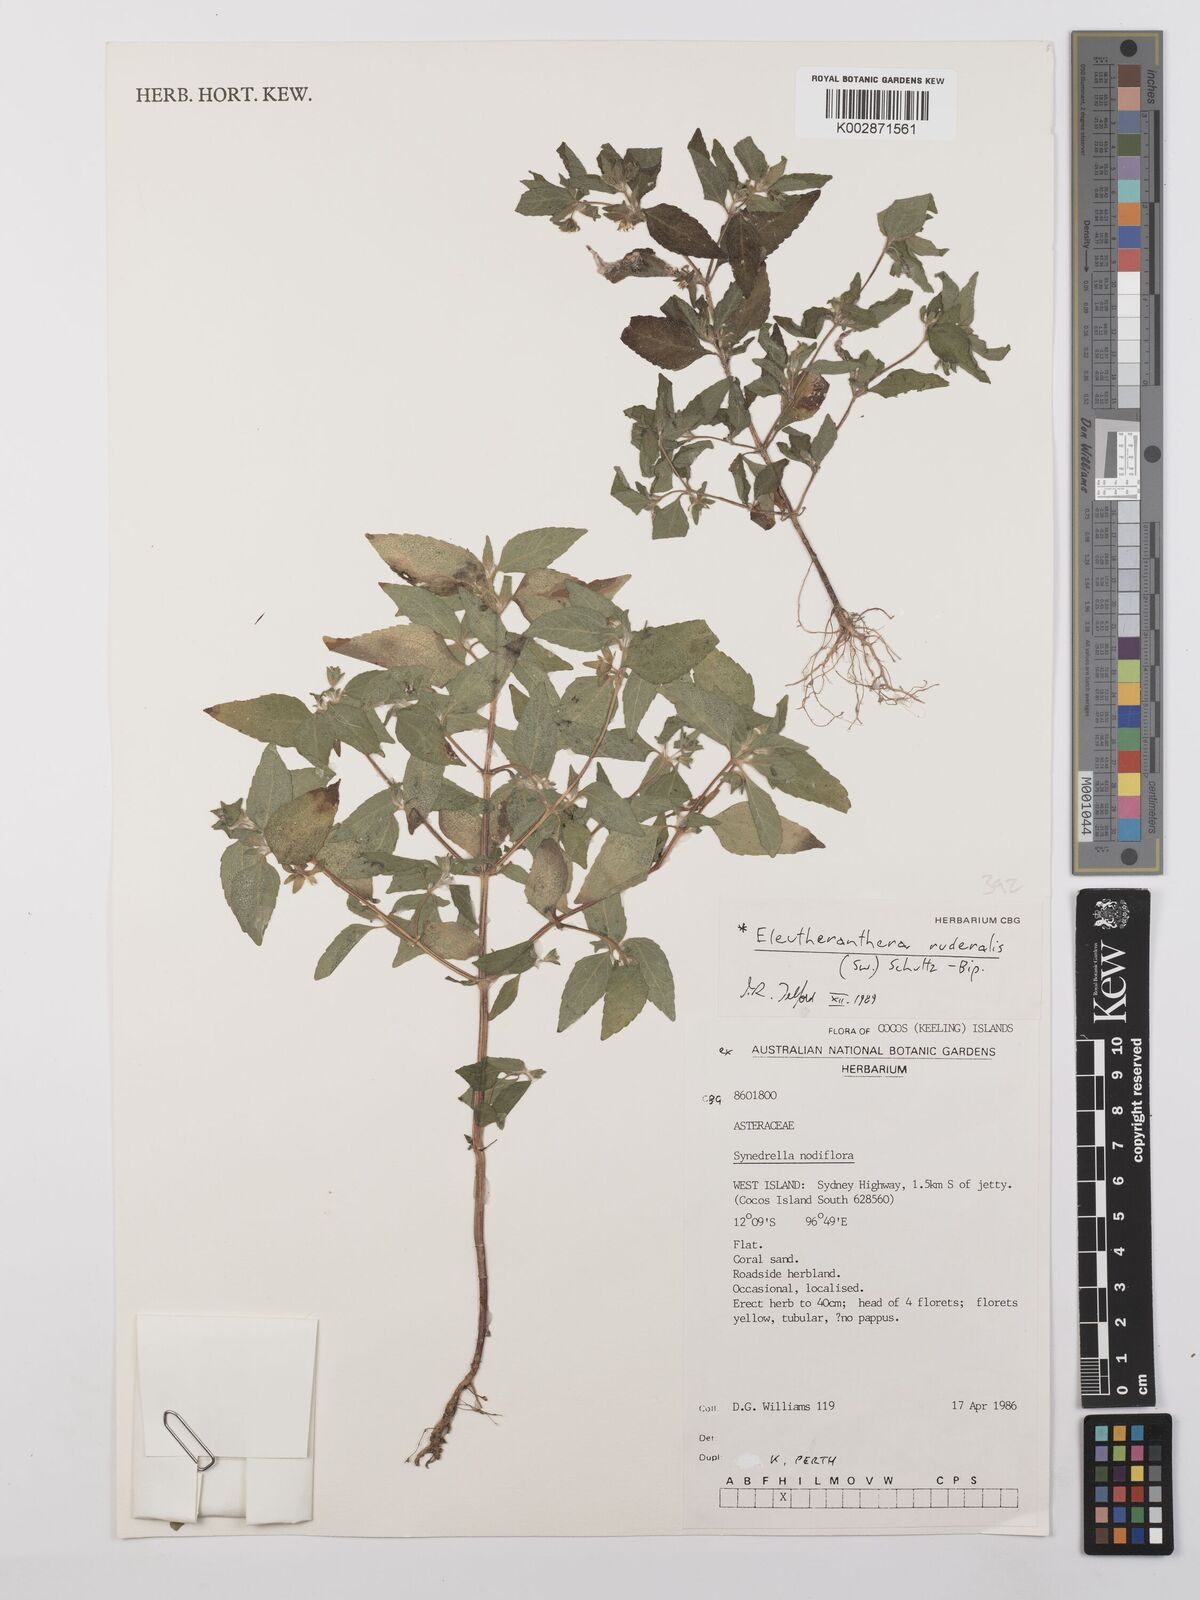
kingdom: Plantae
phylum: Tracheophyta
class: Magnoliopsida
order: Asterales
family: Asteraceae
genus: Eleutheranthera
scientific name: Eleutheranthera ruderalis
